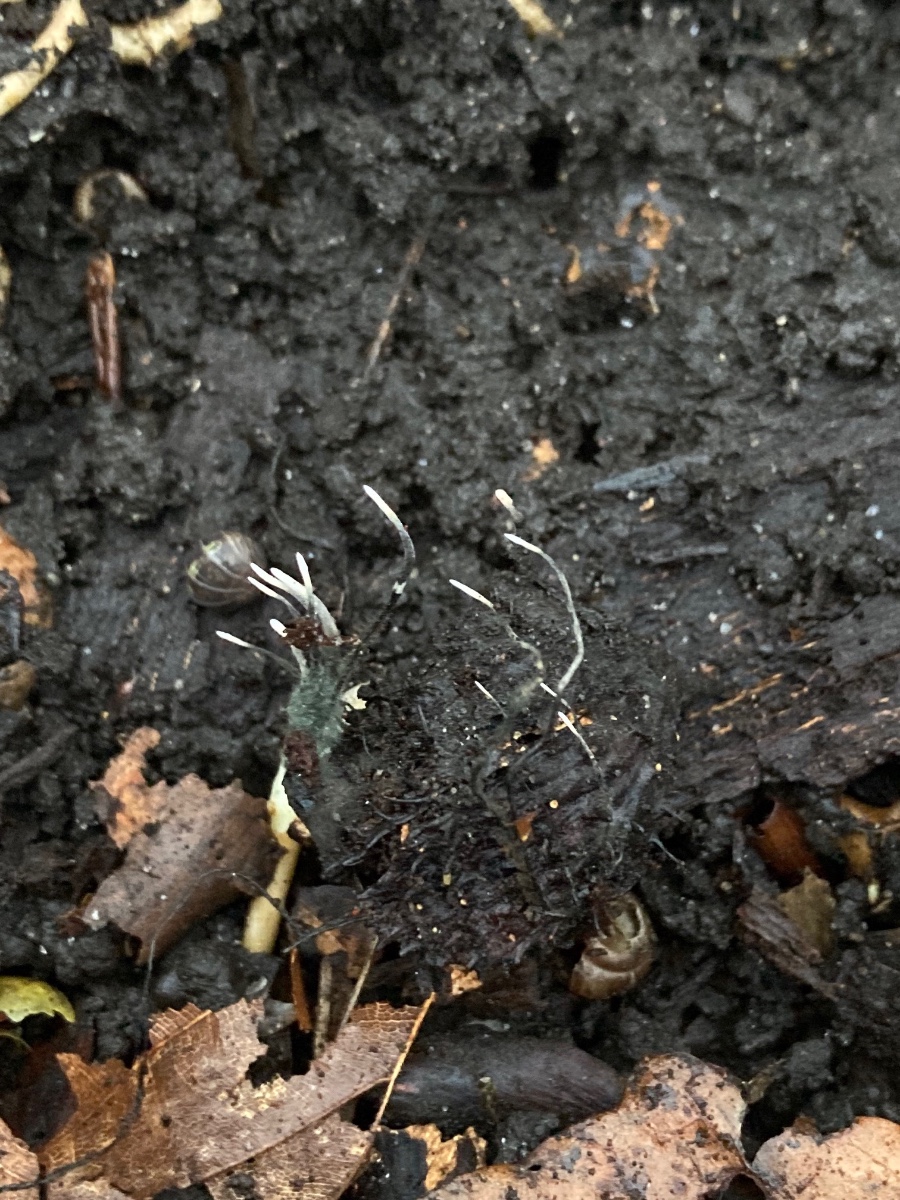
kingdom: Fungi
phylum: Ascomycota
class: Sordariomycetes
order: Xylariales
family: Xylariaceae
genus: Xylaria
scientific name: Xylaria carpophila
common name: bogskål-stødsvamp
